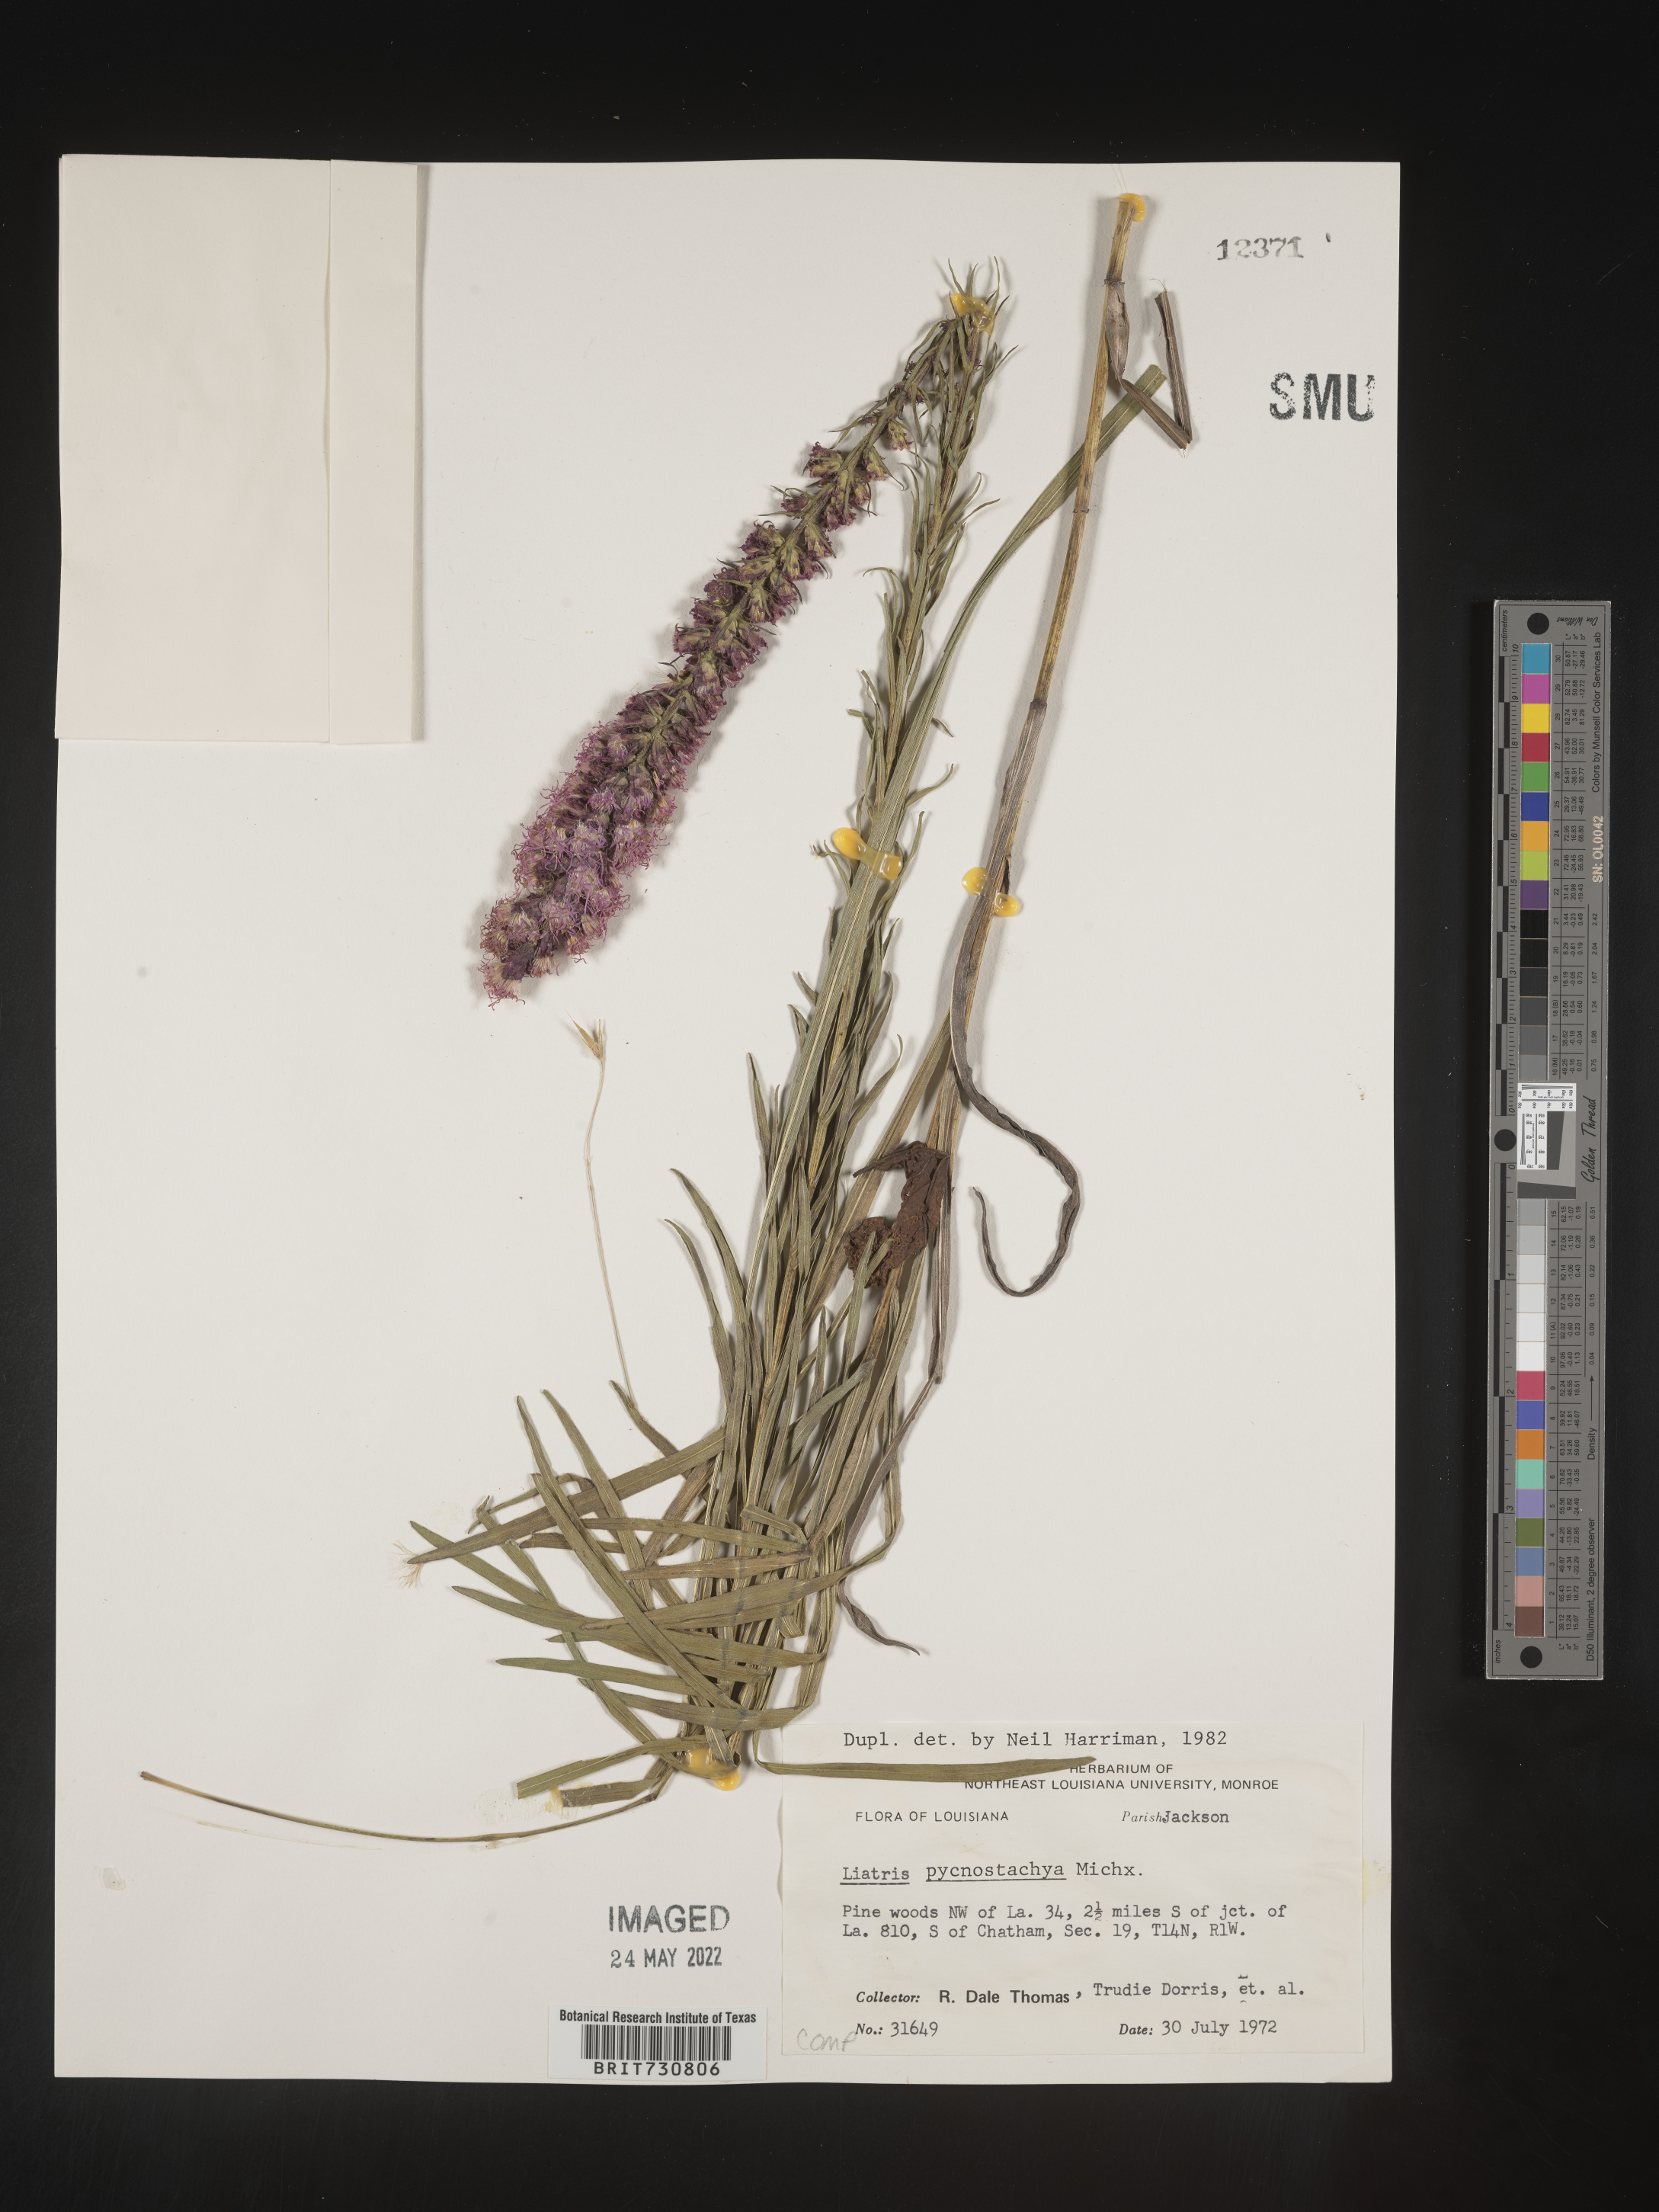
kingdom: Plantae
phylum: Tracheophyta
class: Magnoliopsida
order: Asterales
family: Asteraceae
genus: Liatris
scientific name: Liatris pycnostachya
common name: Cattail gayfeather
